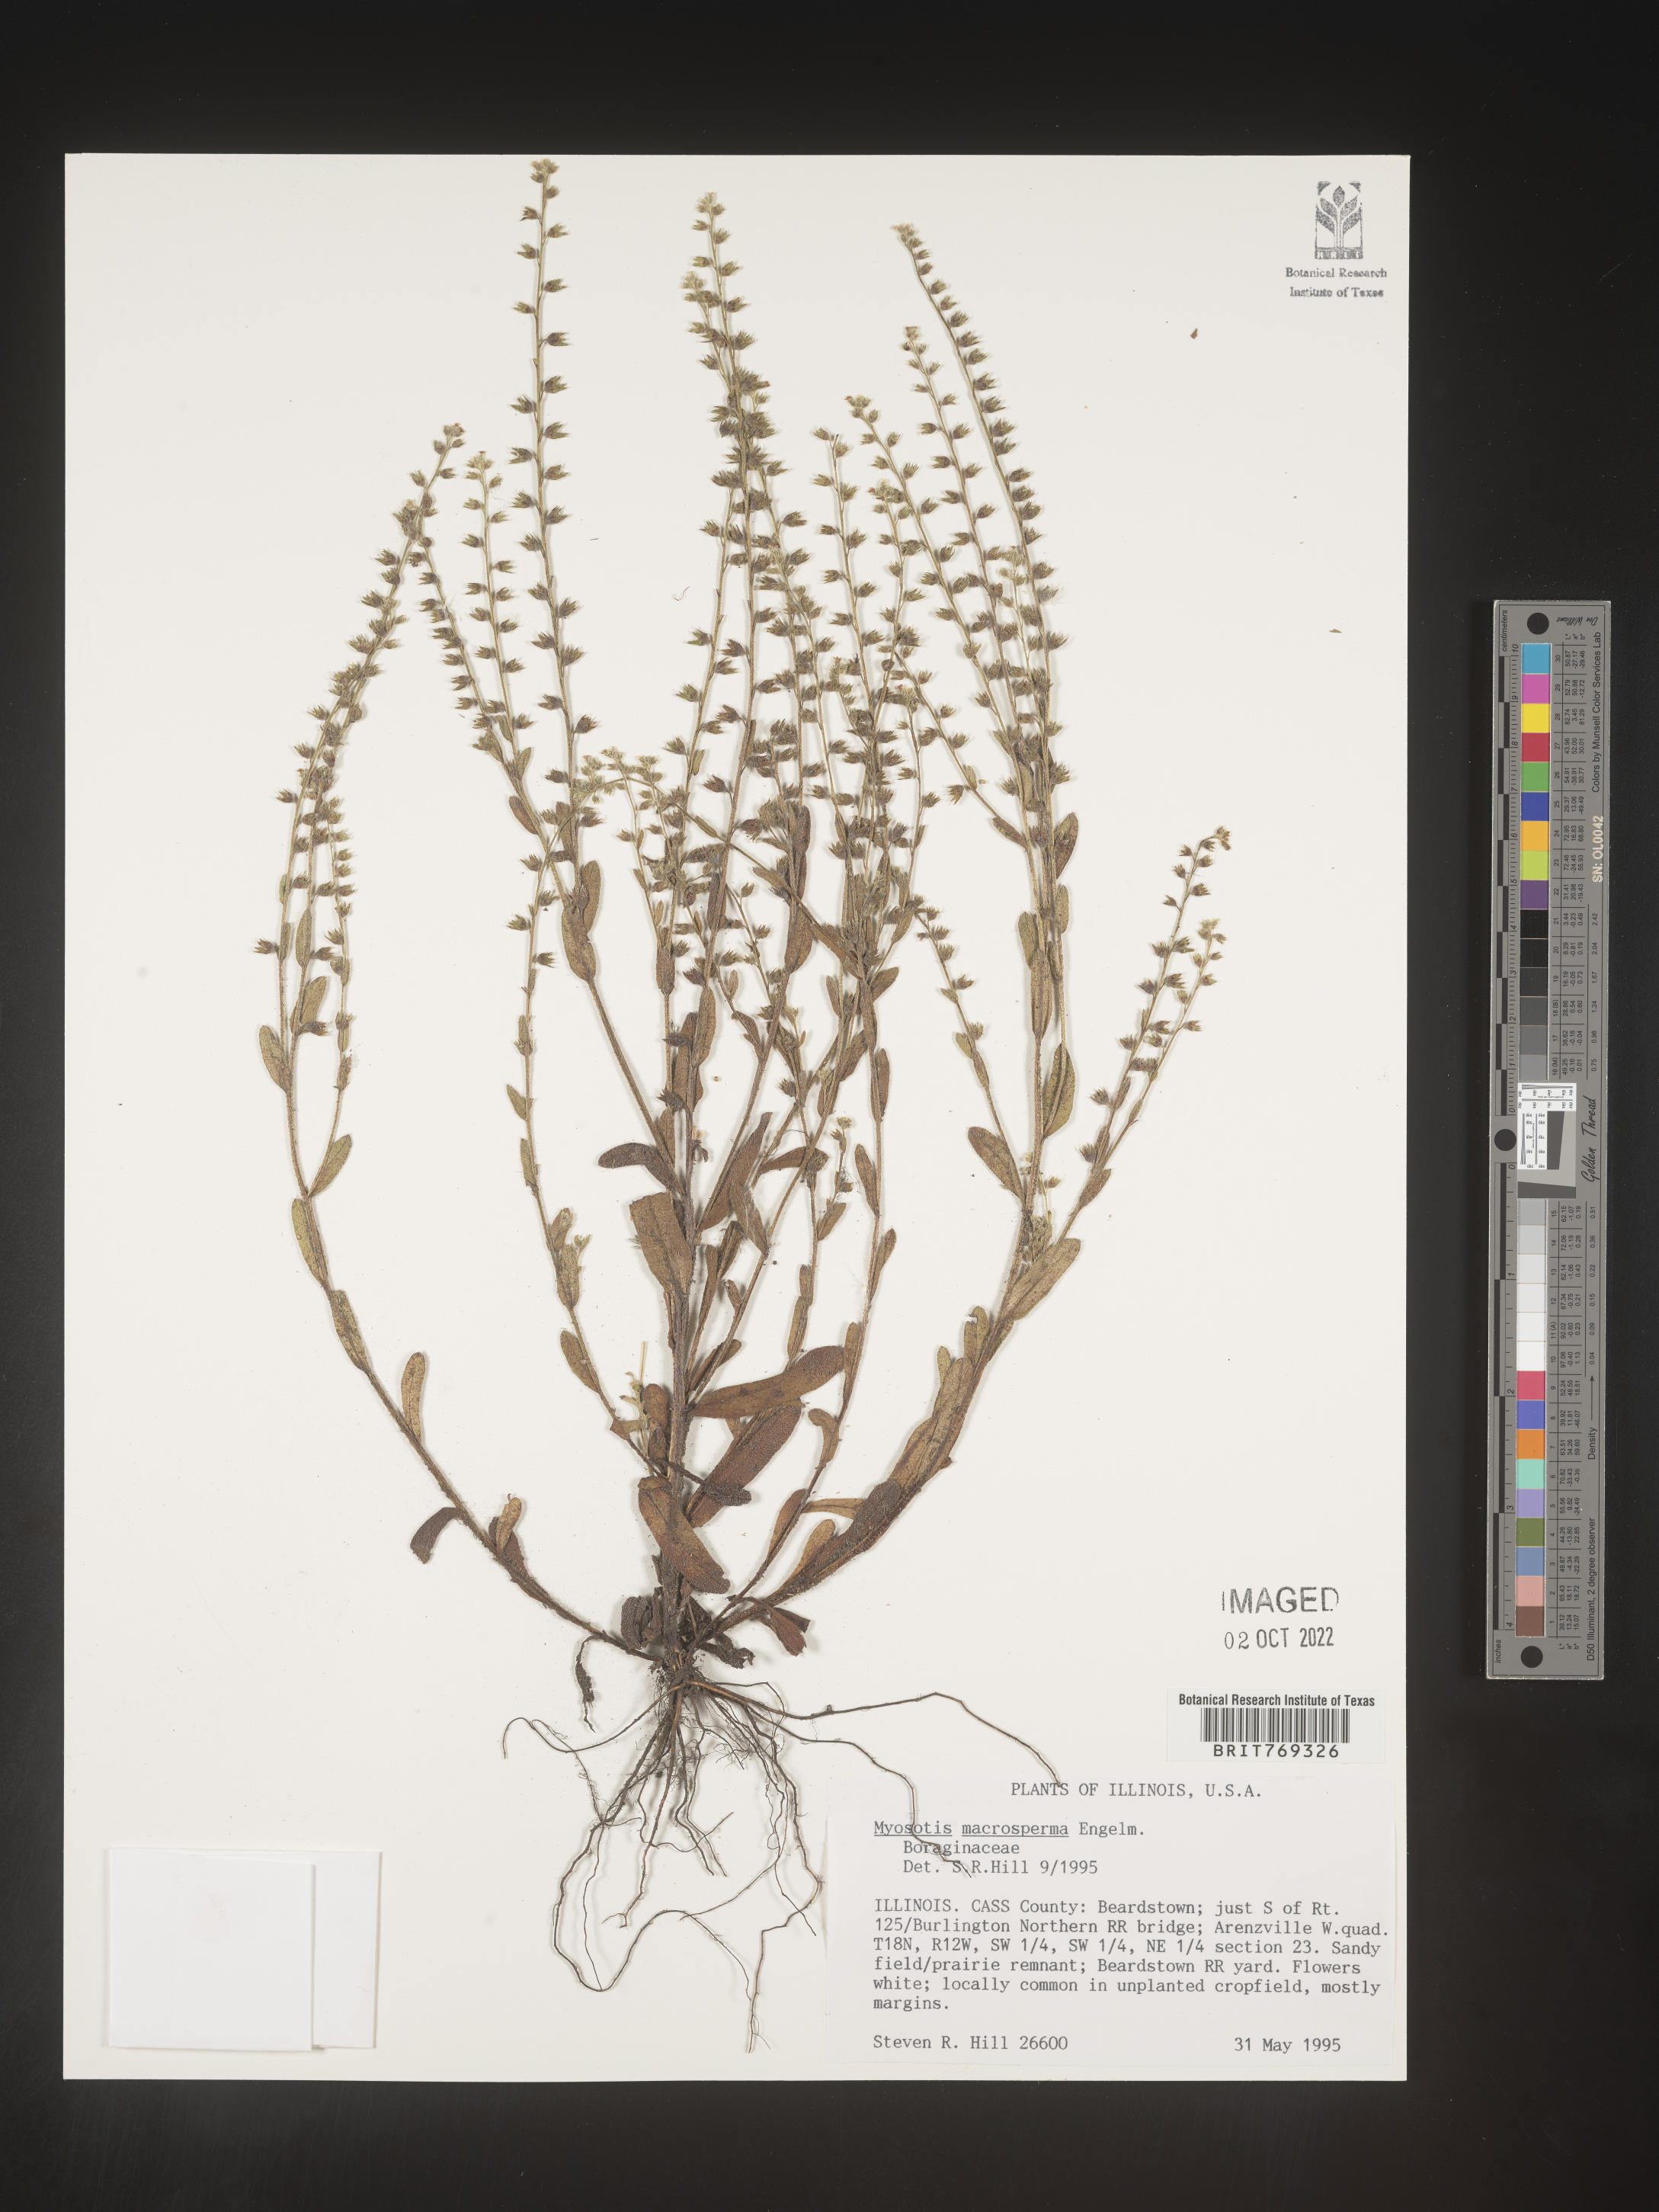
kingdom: Plantae
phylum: Tracheophyta
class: Magnoliopsida
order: Boraginales
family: Boraginaceae
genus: Myosotis
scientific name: Myosotis macrosperma
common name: Large-seed forget-me-not
